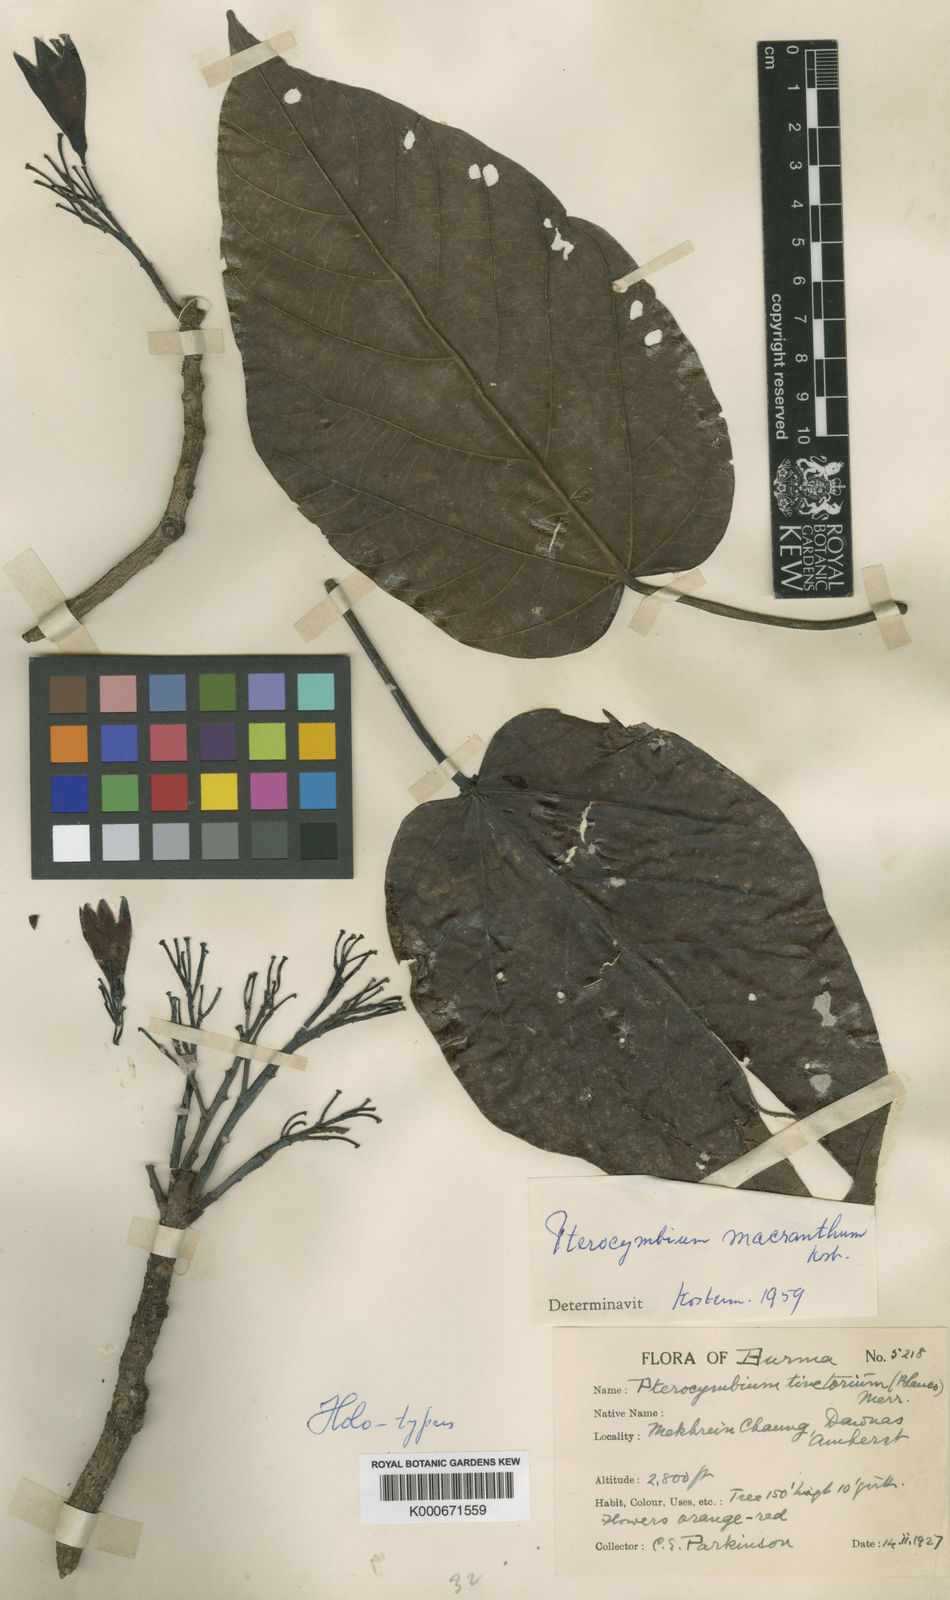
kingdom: Plantae
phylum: Tracheophyta
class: Magnoliopsida
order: Malvales
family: Malvaceae
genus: Pterocymbium
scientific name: Pterocymbium macranthum
